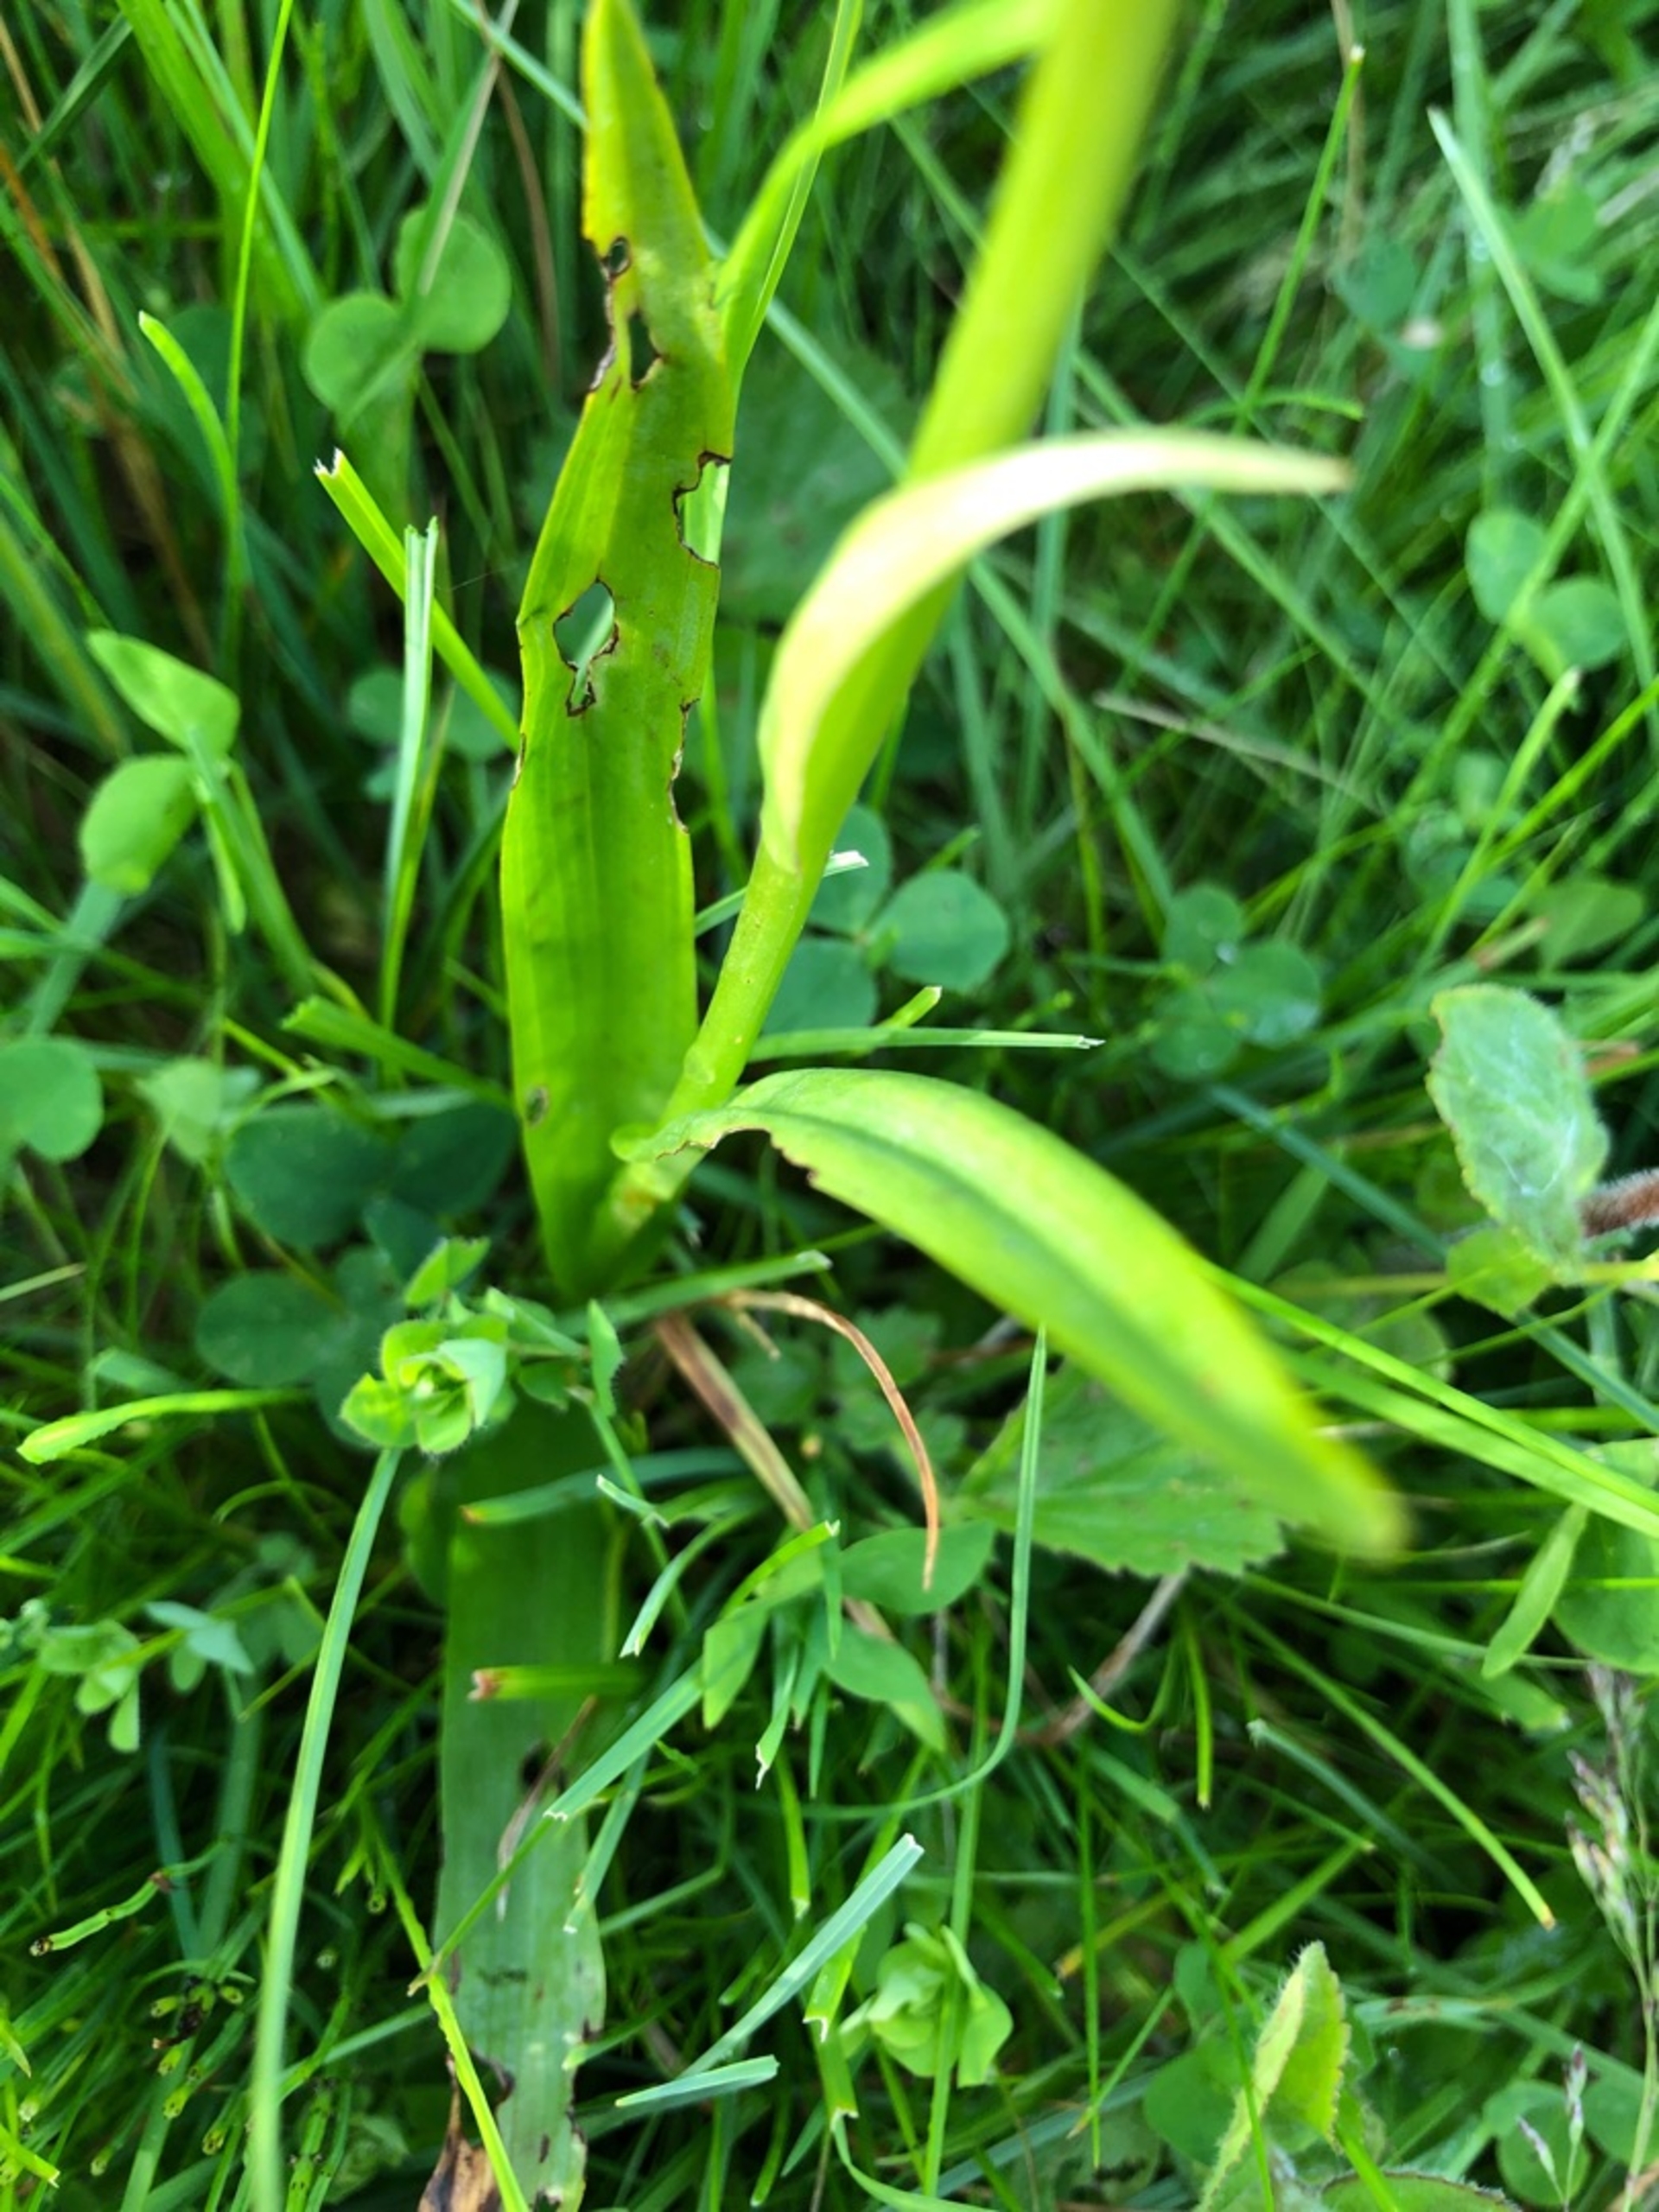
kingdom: Plantae
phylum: Tracheophyta
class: Liliopsida
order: Asparagales
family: Orchidaceae
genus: Dactylorhiza
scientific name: Dactylorhiza majalis
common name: Maj-gøgeurt
